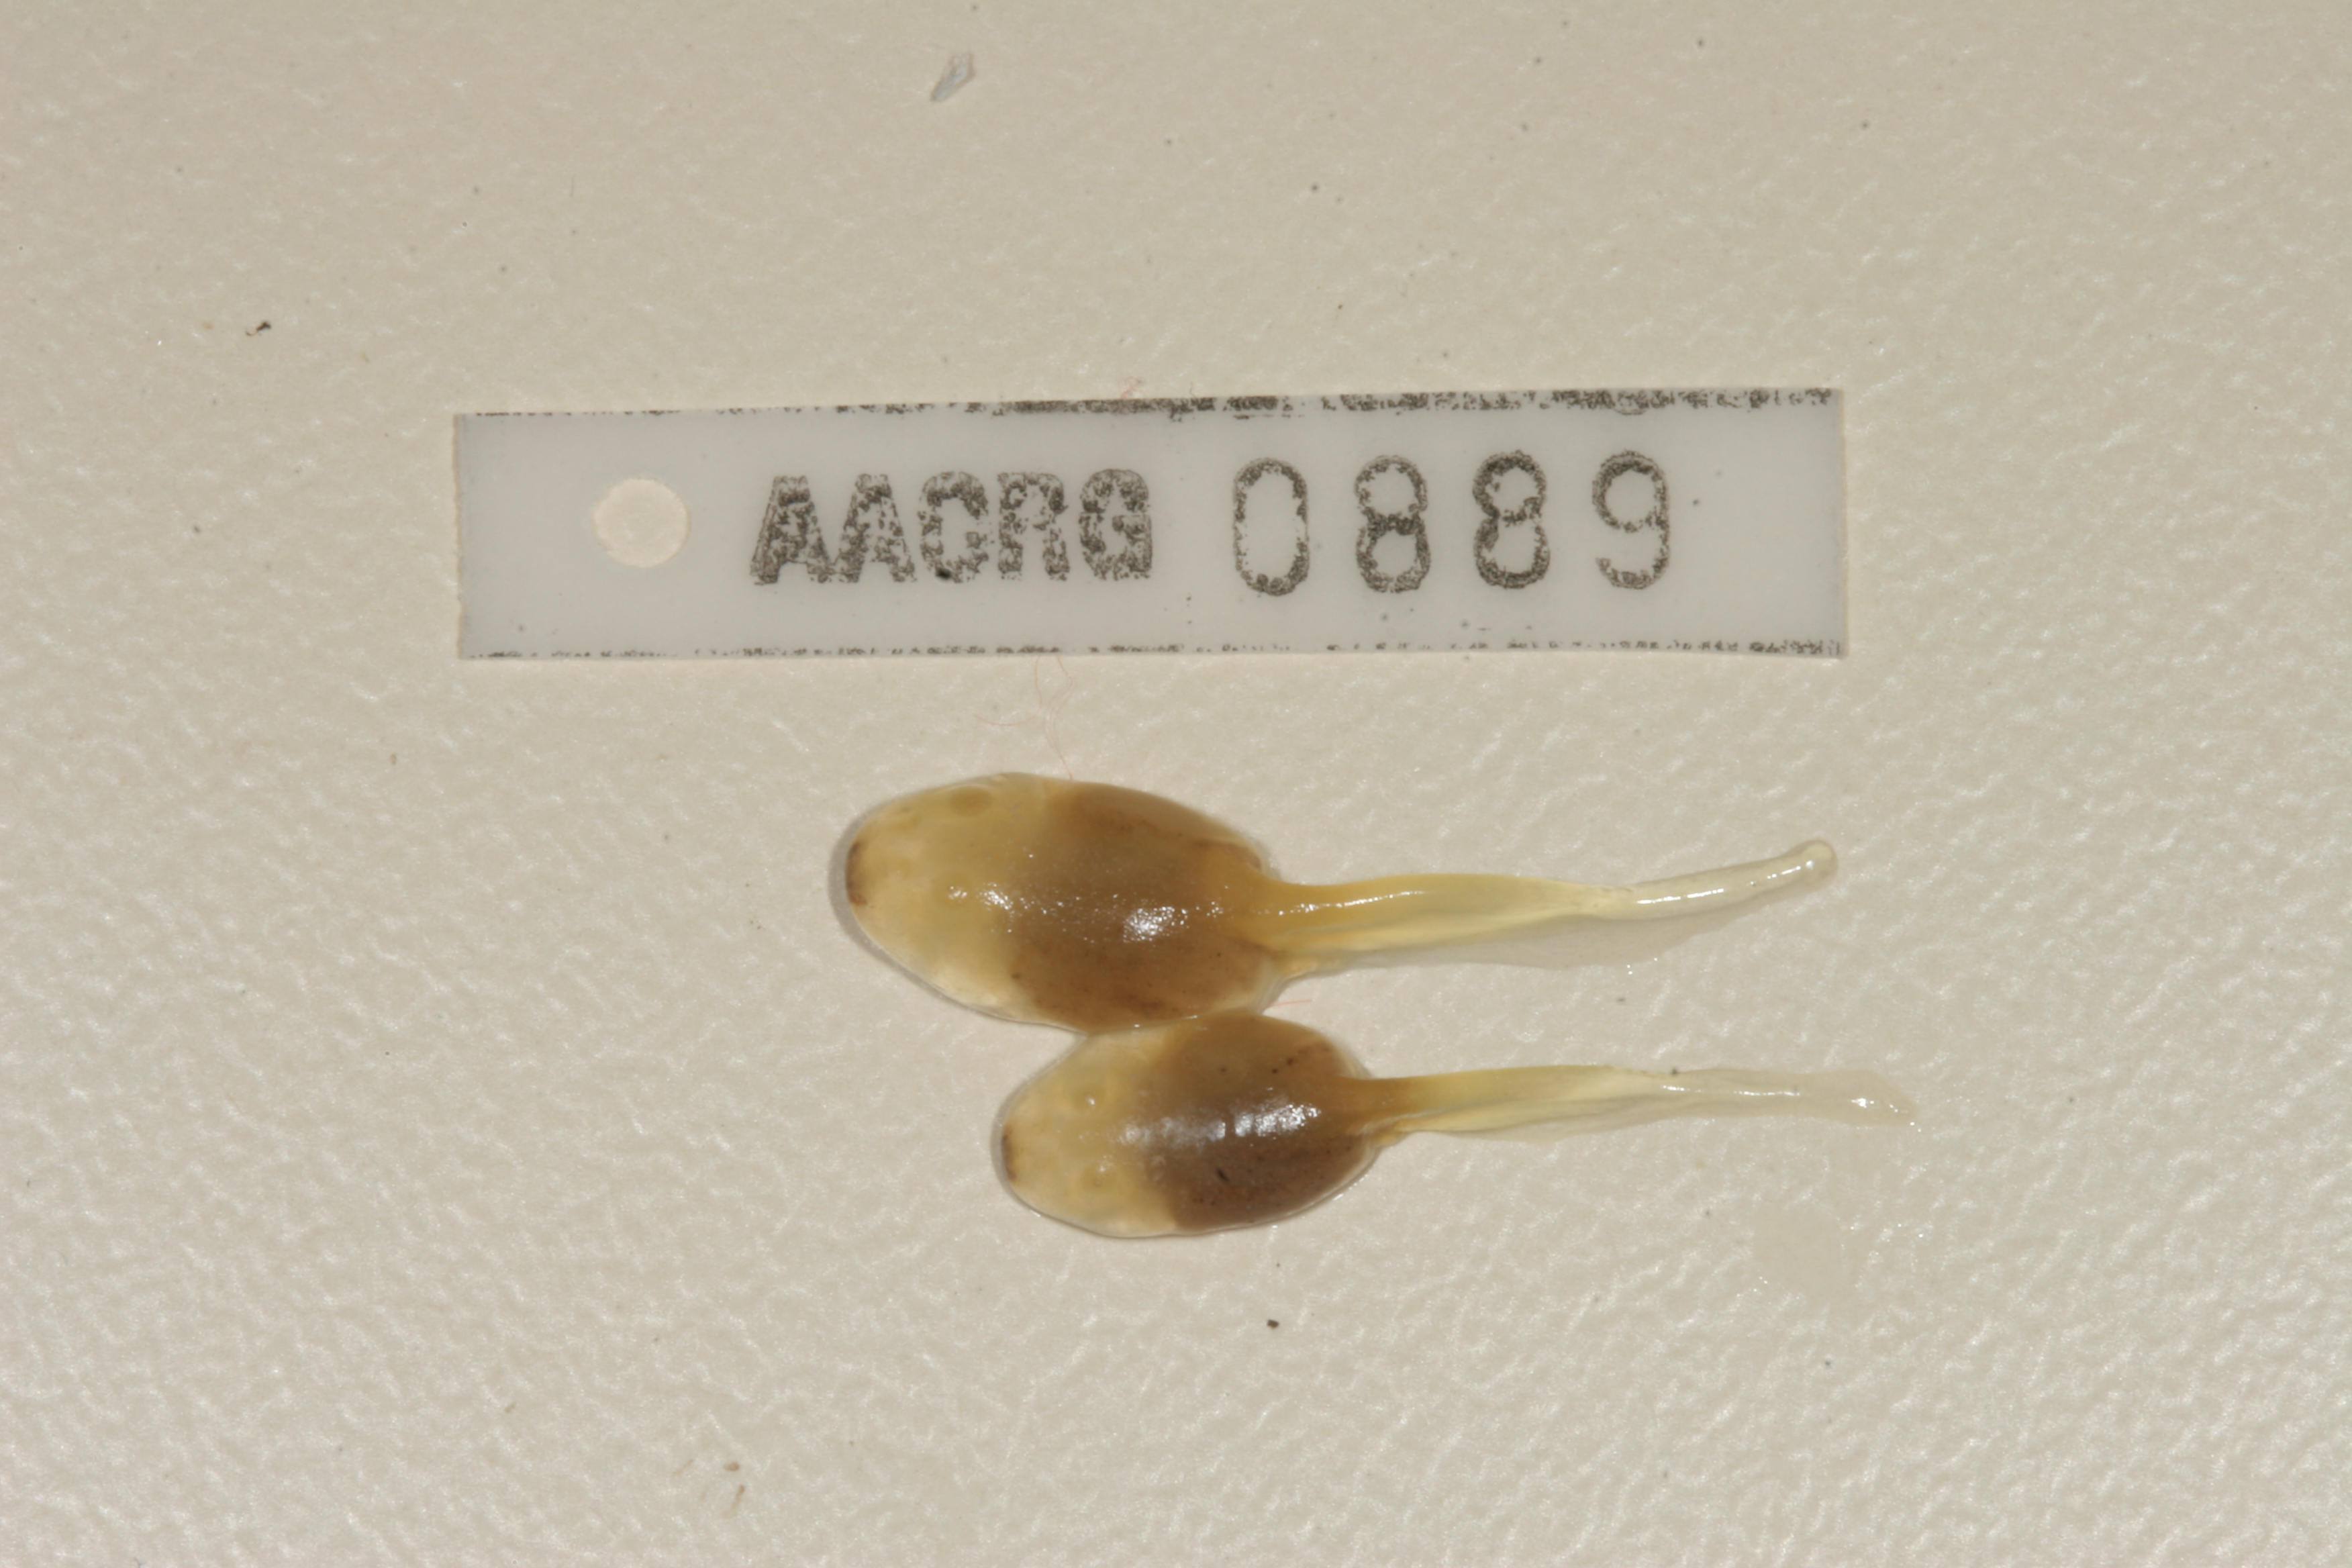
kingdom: Animalia
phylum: Chordata
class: Amphibia
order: Anura
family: Pyxicephalidae
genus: Amietia
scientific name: Amietia fuscigula
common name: Cape rana
